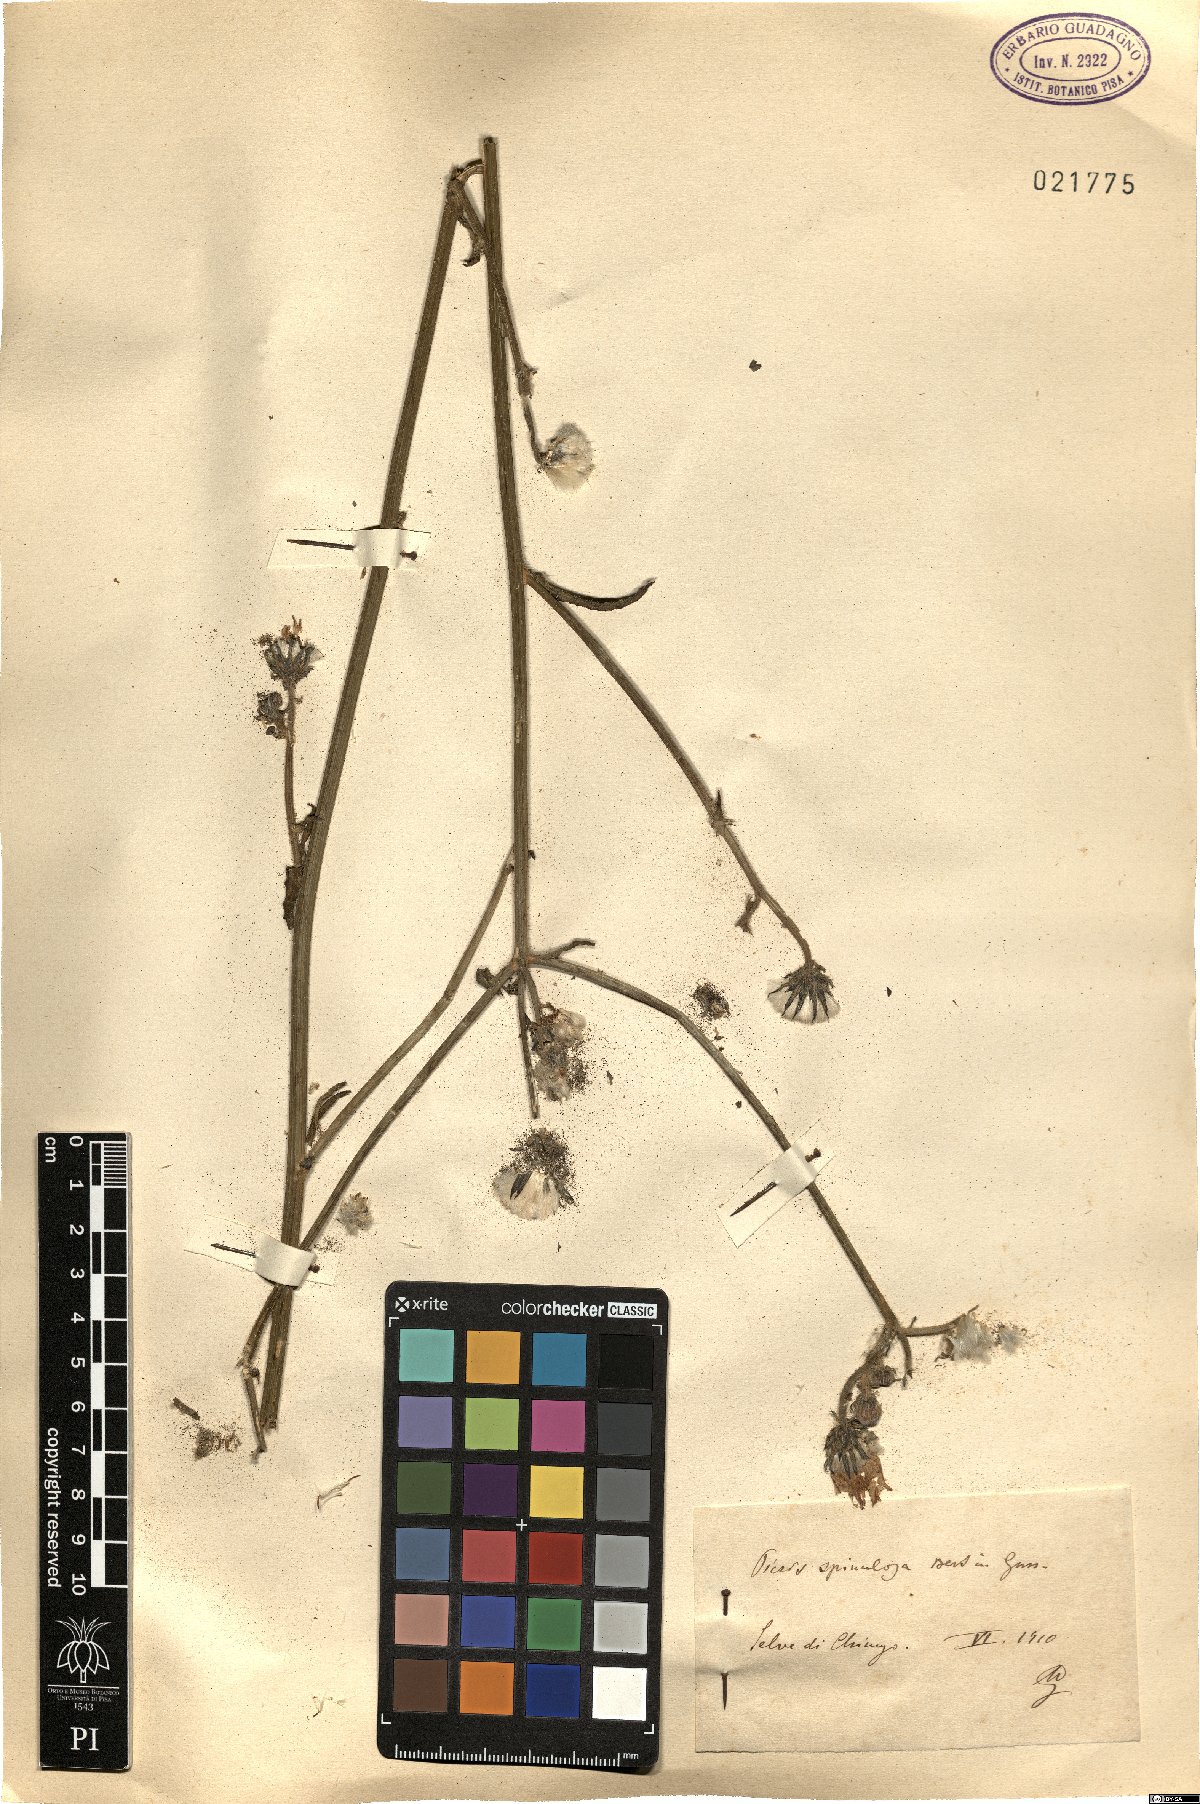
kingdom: Plantae
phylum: Tracheophyta
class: Magnoliopsida
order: Asterales
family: Asteraceae
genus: Picris
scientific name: Picris hieracioides
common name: Hawkweed oxtongue
